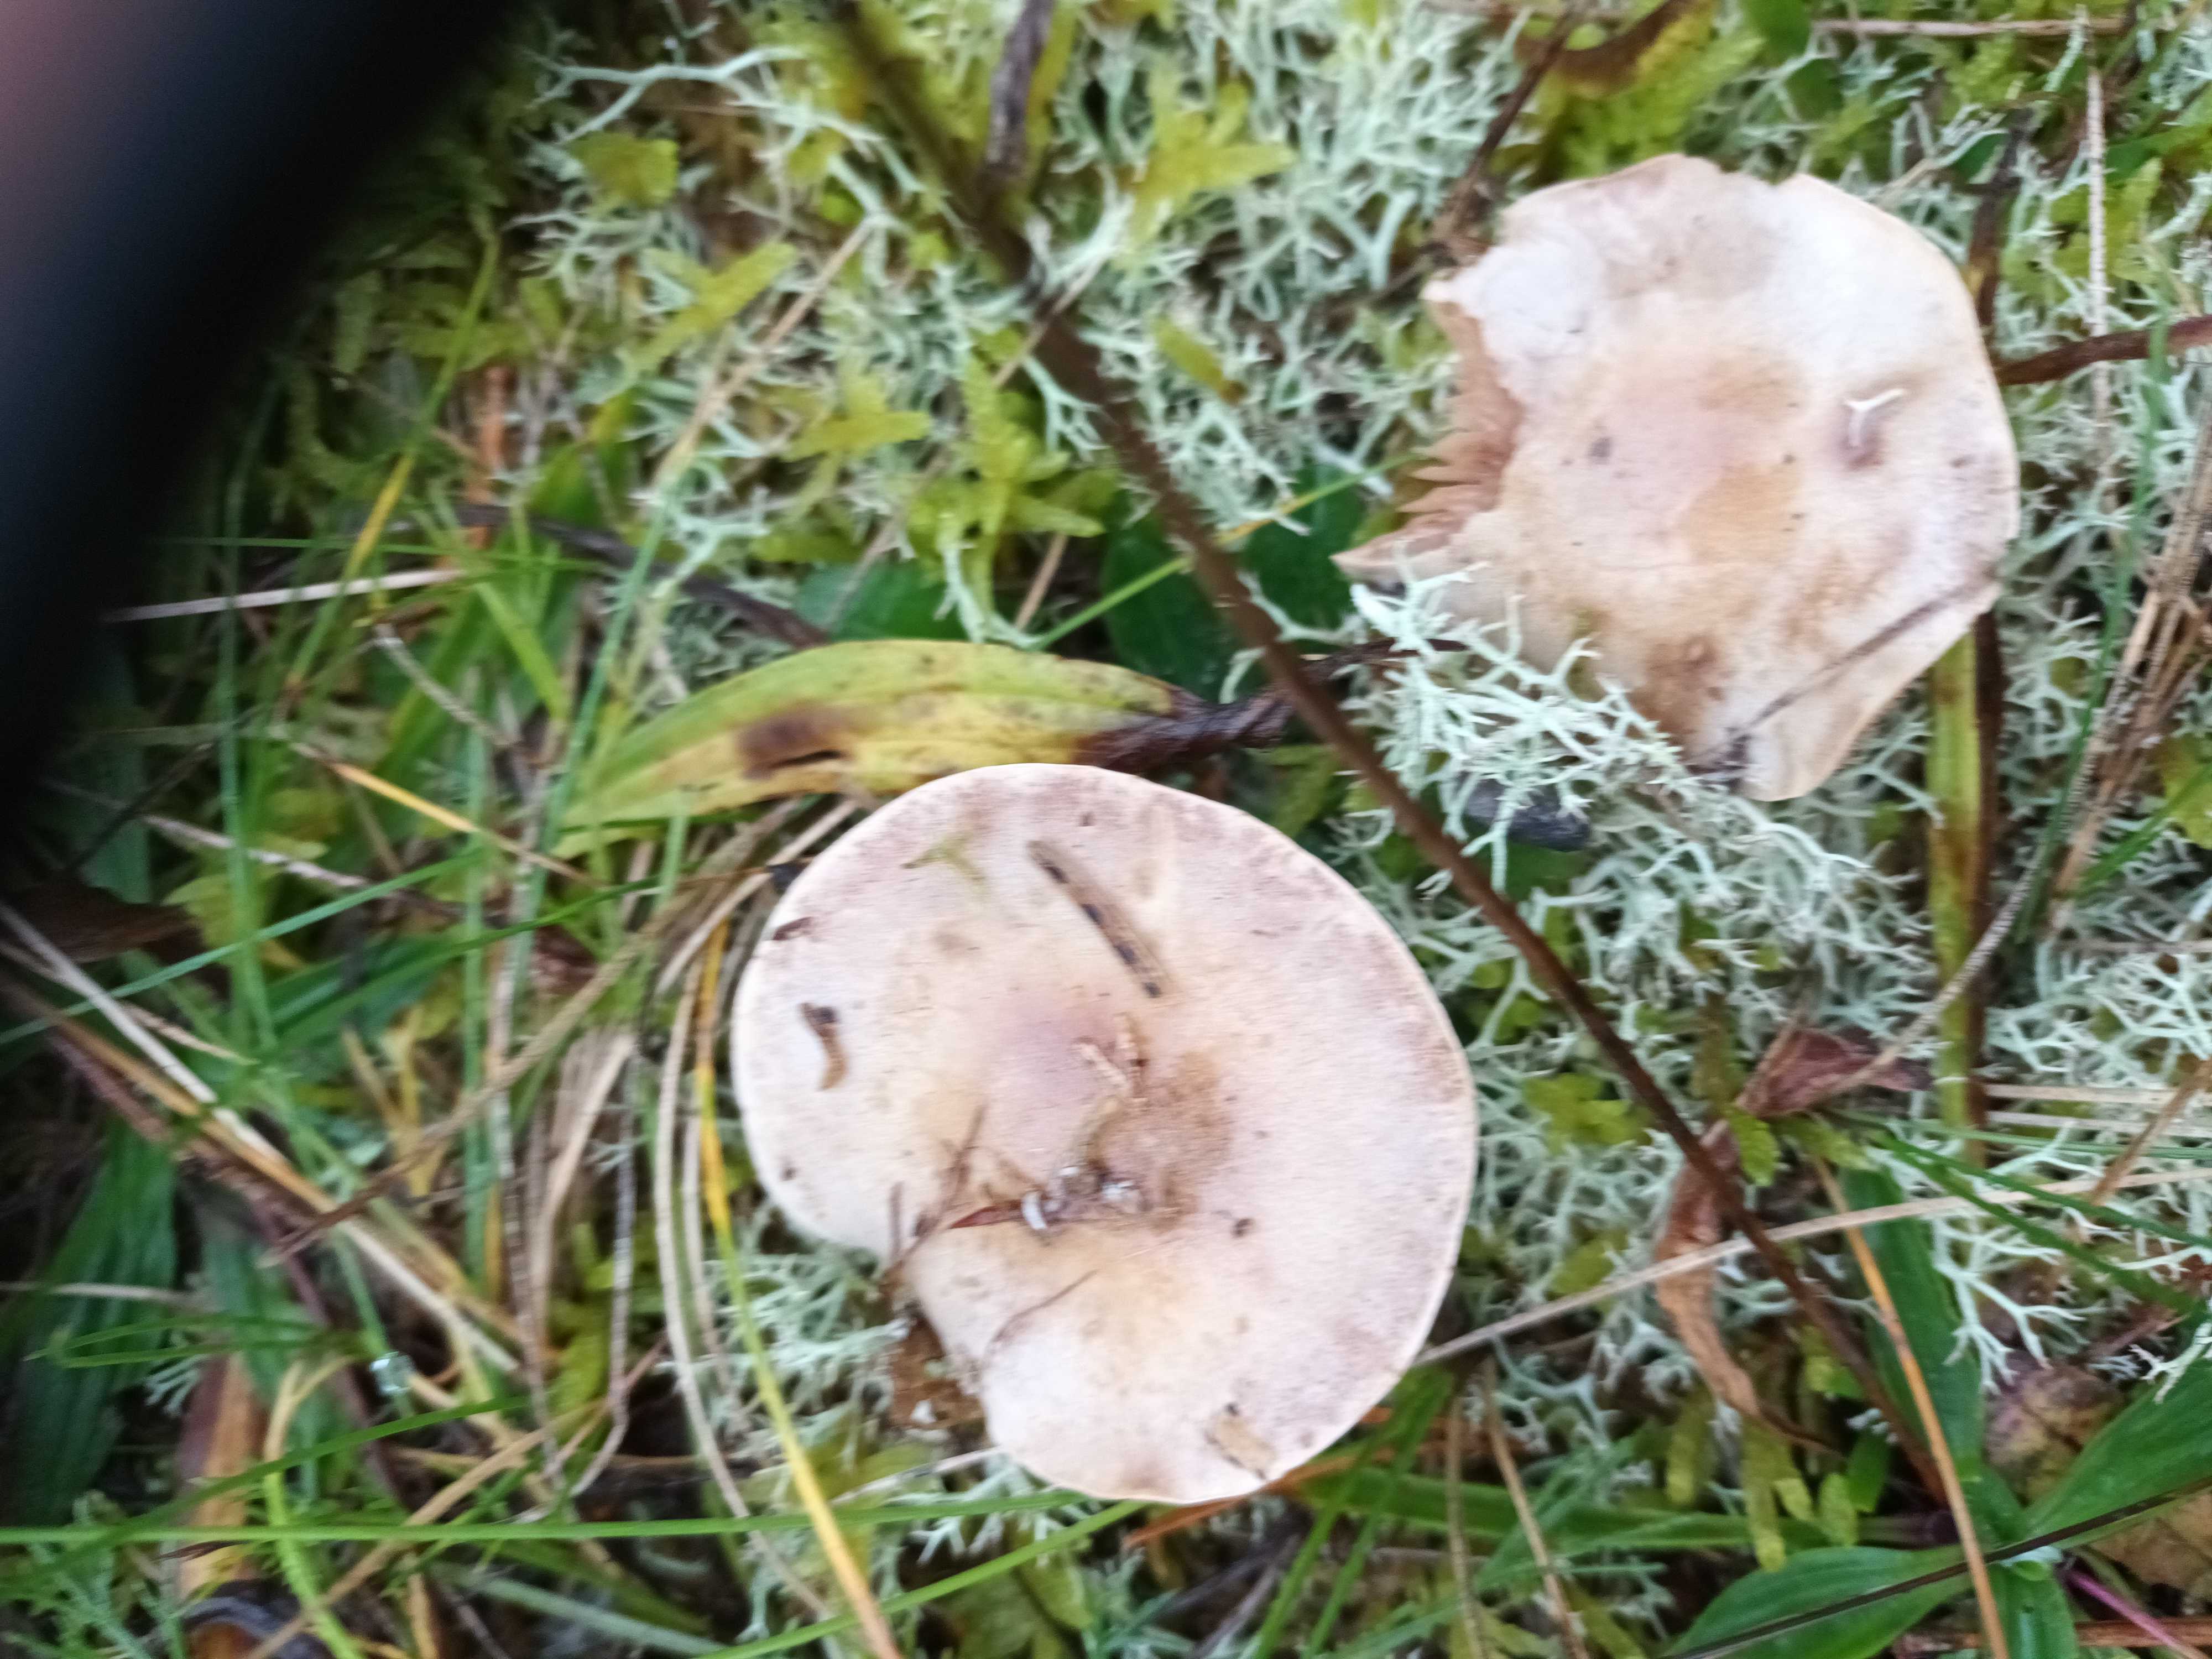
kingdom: Fungi
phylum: Basidiomycota
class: Agaricomycetes
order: Agaricales
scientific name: Agaricales
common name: champignonordenen
